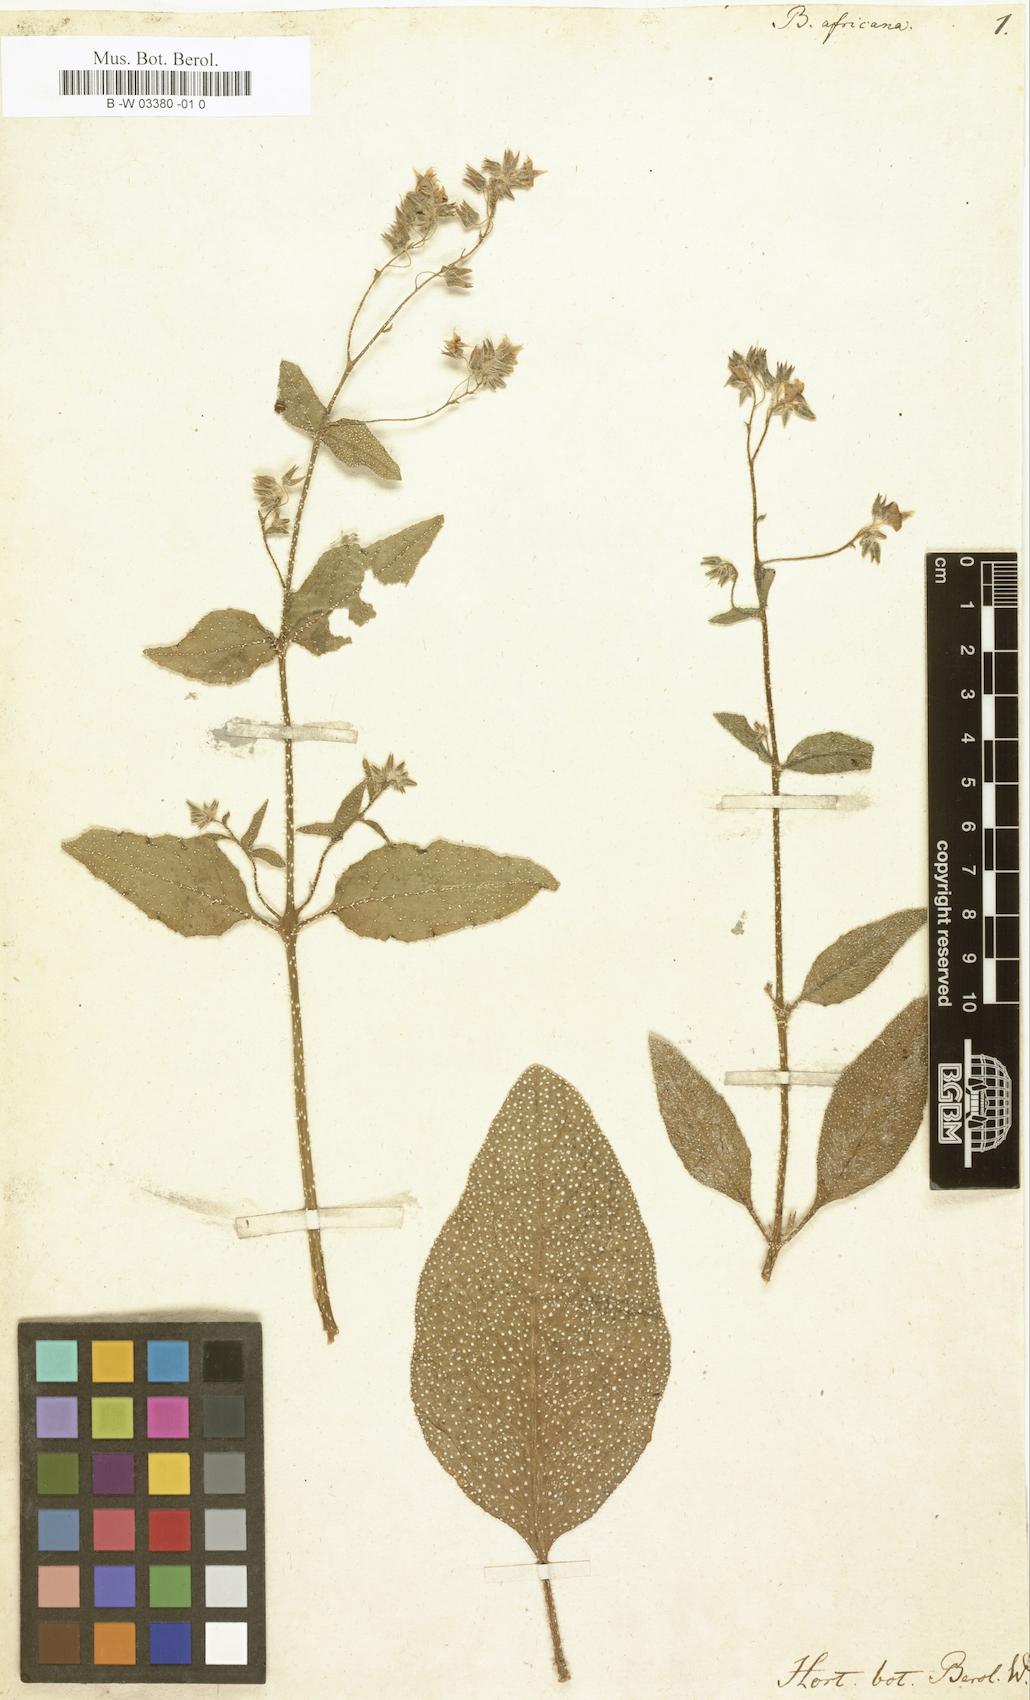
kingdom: Plantae
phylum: Tracheophyta
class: Magnoliopsida
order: Boraginales
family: Boraginaceae
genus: Trichodesma
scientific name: Trichodesma africanum
